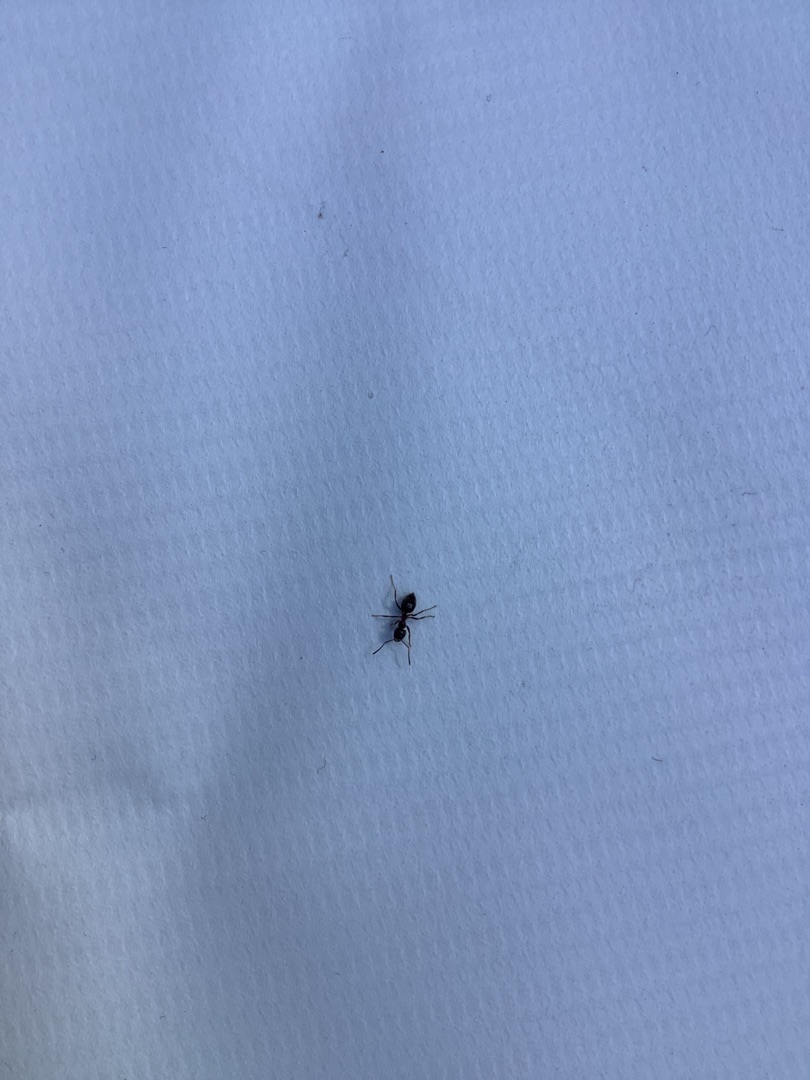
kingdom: Animalia
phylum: Arthropoda
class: Insecta
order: Hymenoptera
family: Formicidae
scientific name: Formicidae
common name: Myrer
